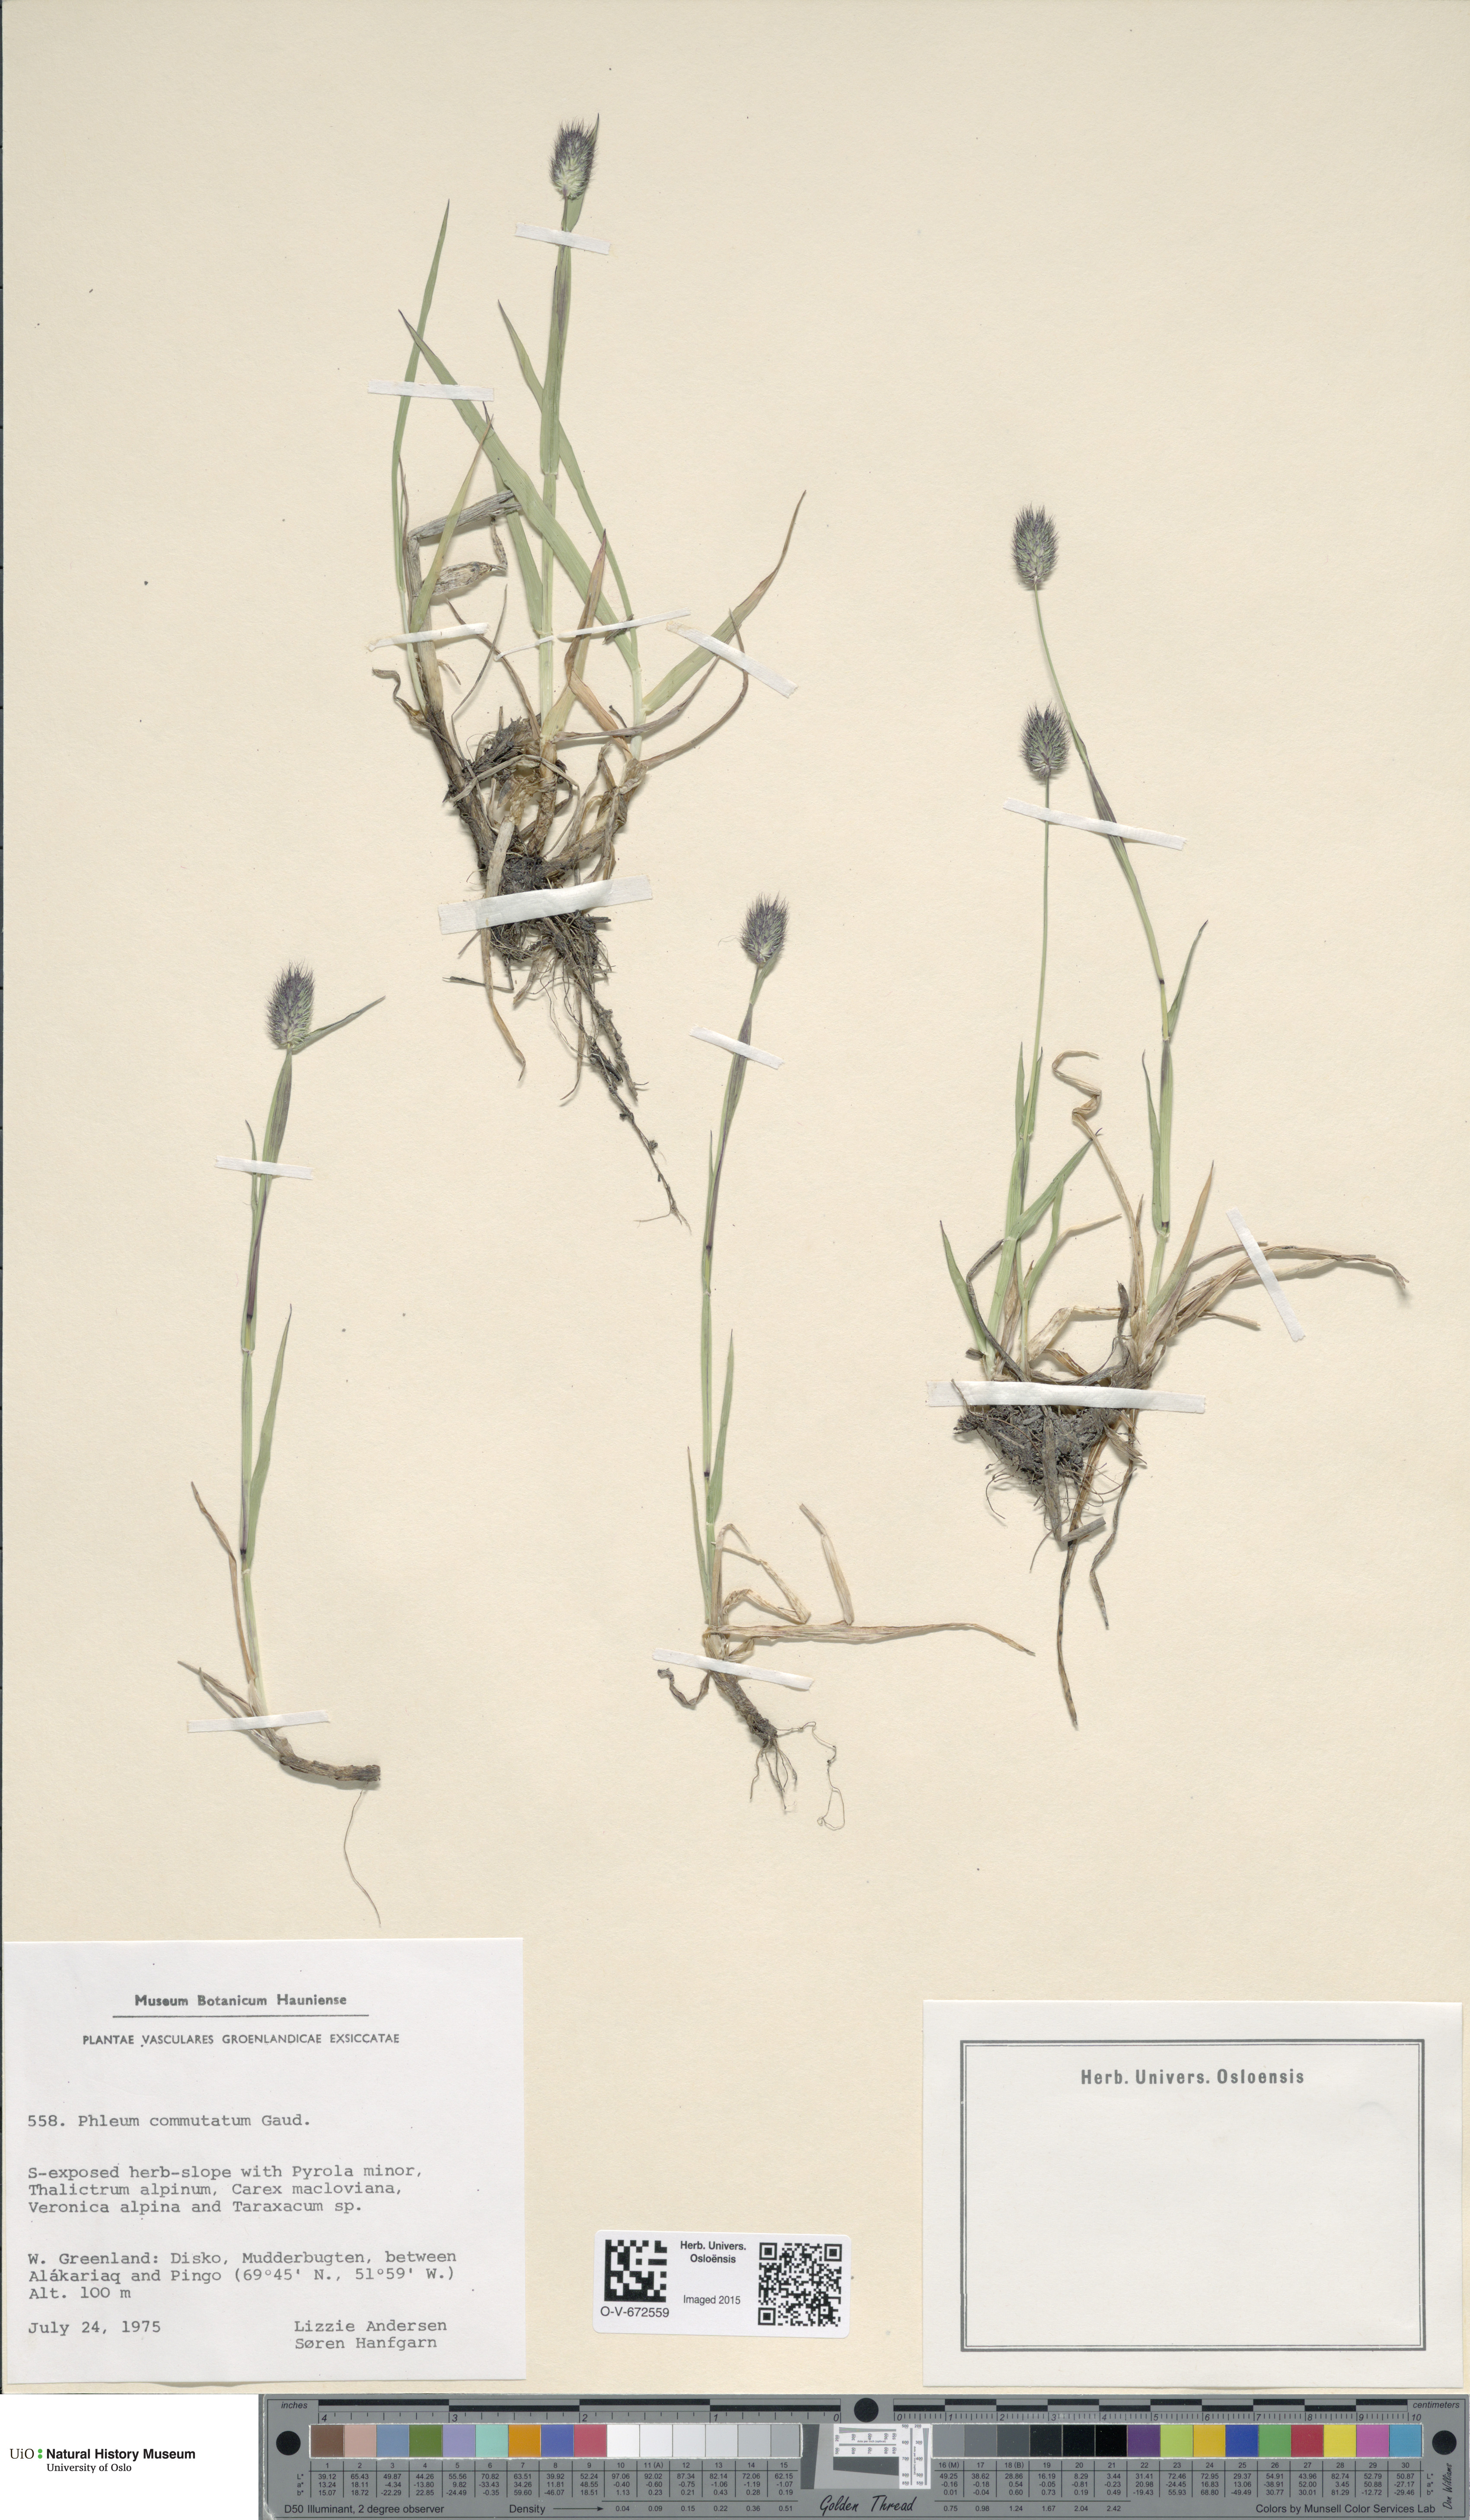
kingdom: Plantae
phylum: Tracheophyta
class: Liliopsida
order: Poales
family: Poaceae
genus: Phleum
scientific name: Phleum alpinum
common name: Alpine cat's-tail
